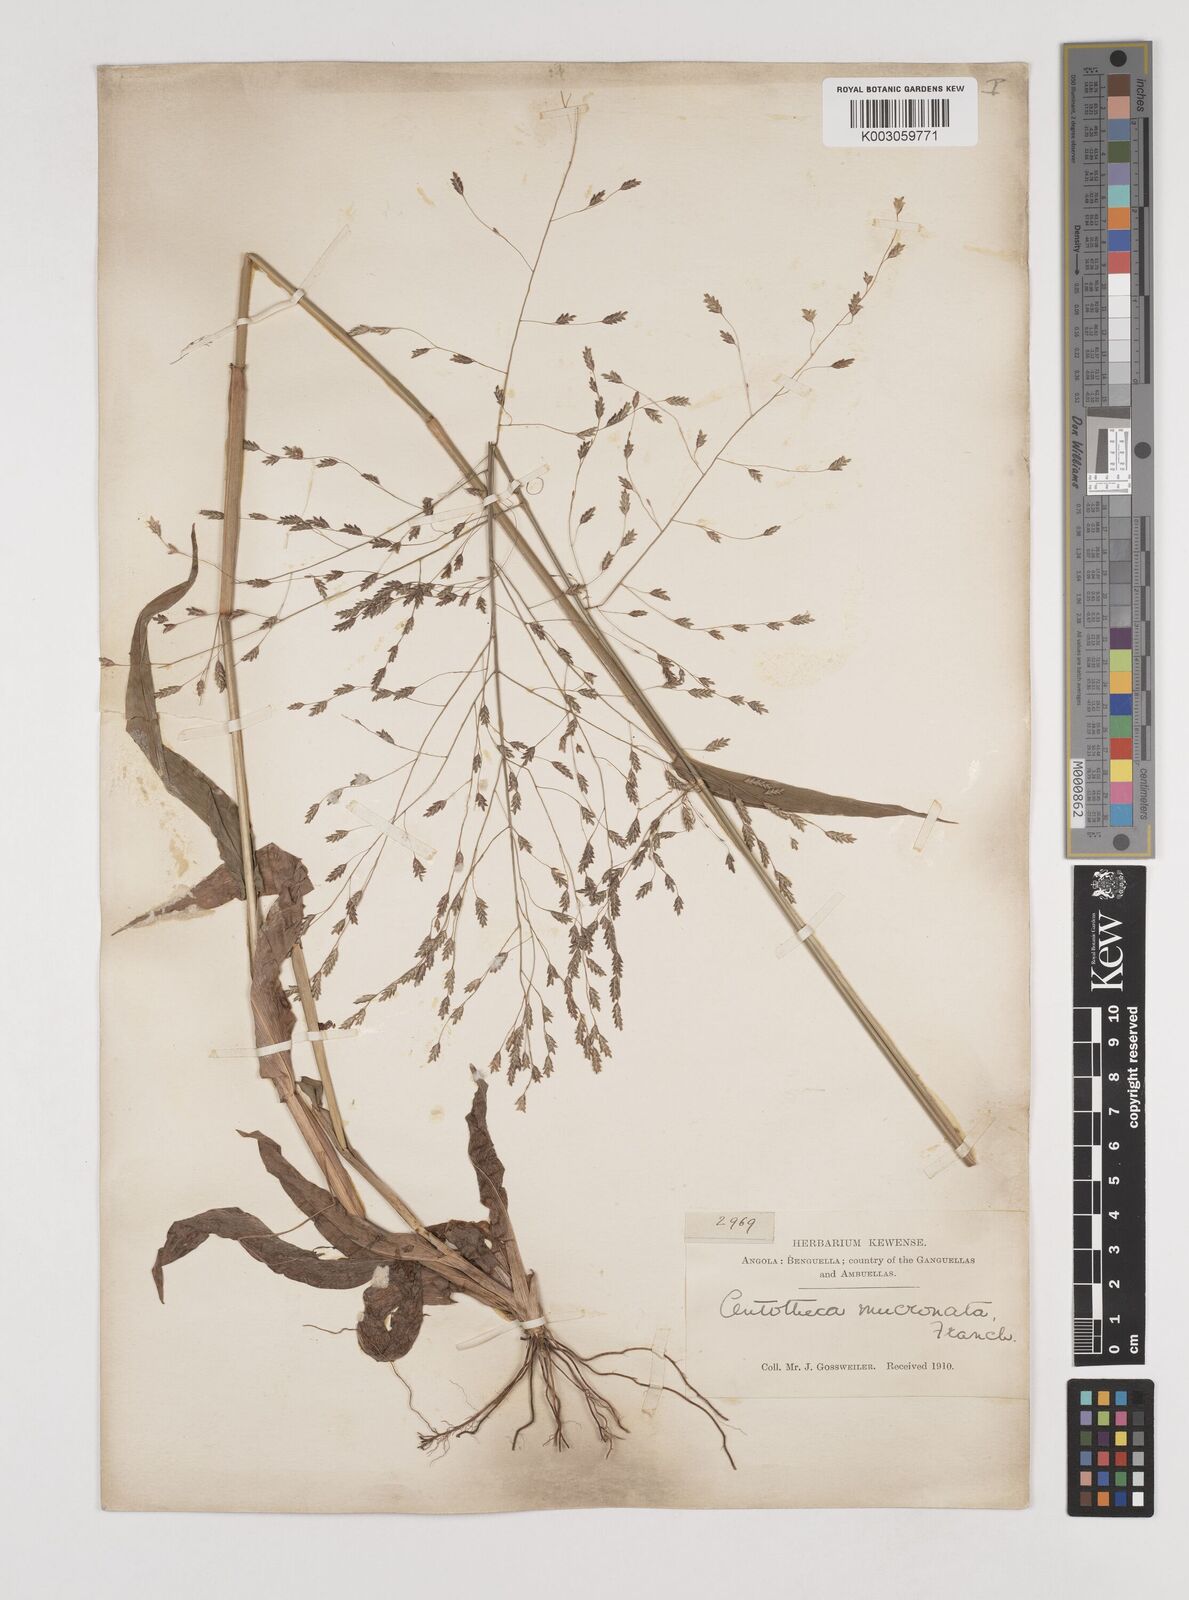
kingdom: Plantae
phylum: Tracheophyta
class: Liliopsida
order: Poales
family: Poaceae
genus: Megastachya
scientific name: Megastachya mucronata
